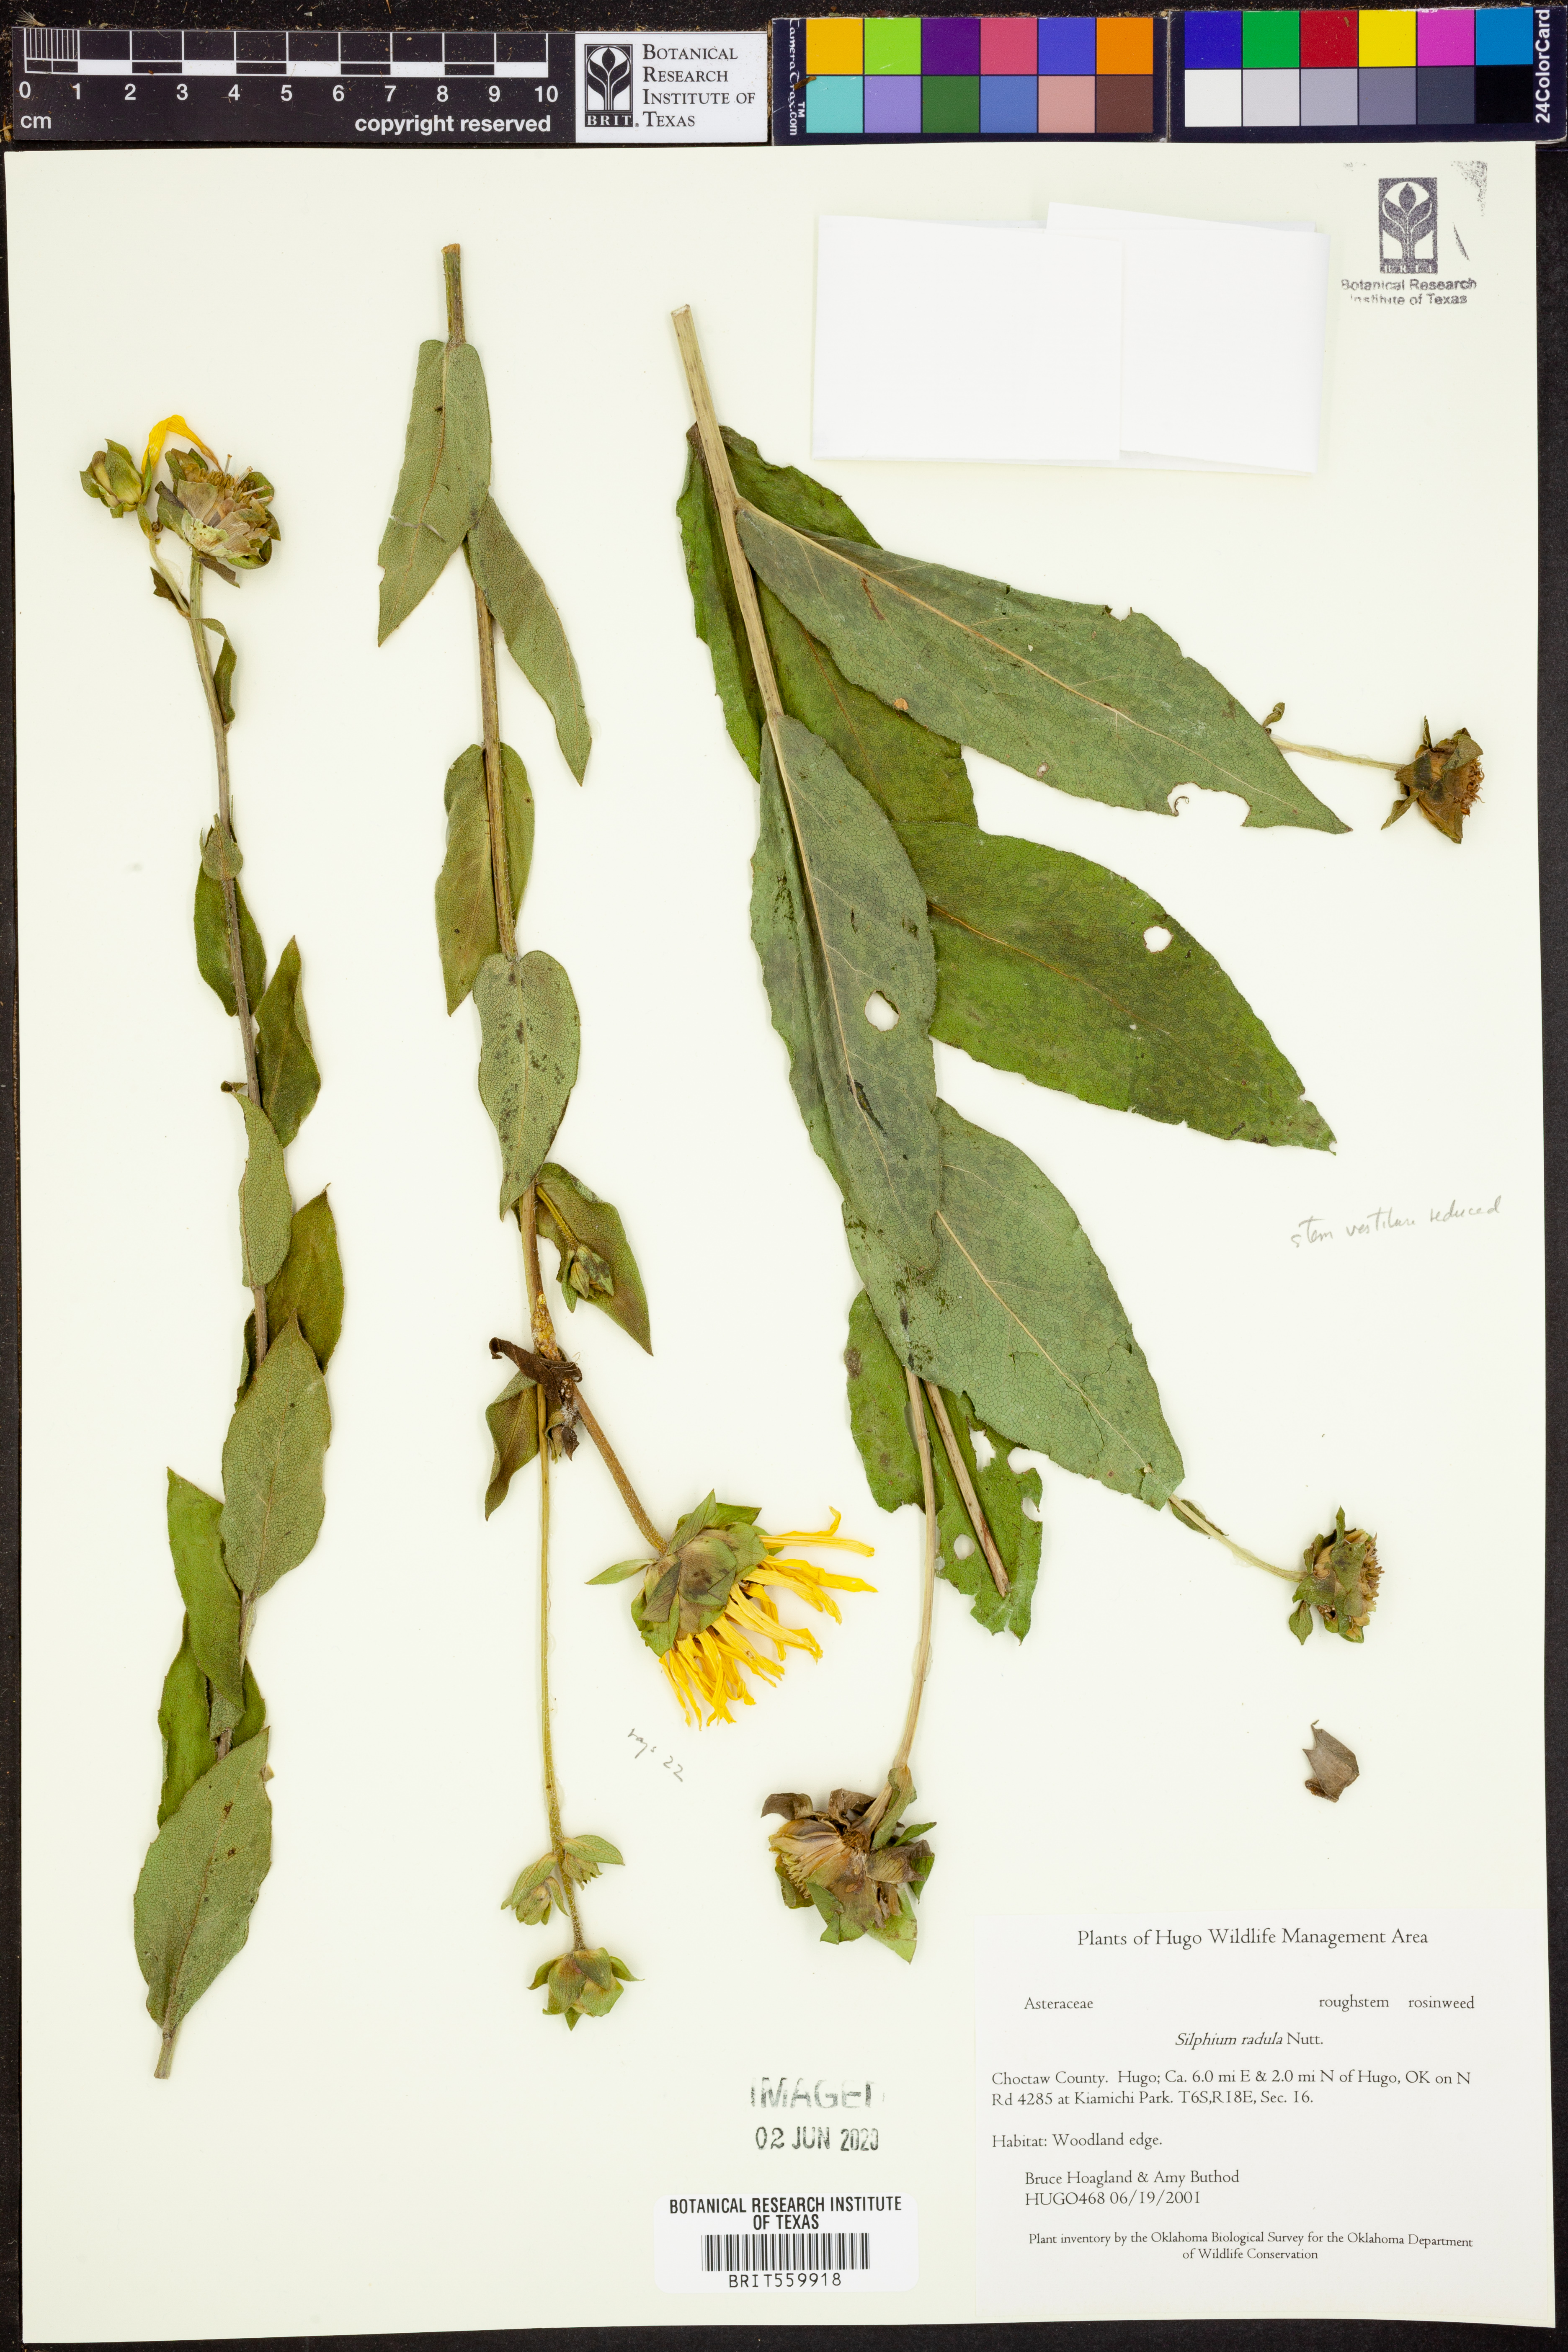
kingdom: Plantae
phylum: Tracheophyta
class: Magnoliopsida
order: Asterales
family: Asteraceae
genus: Silphium
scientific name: Silphium radula
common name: Roughleaf rosinweed
